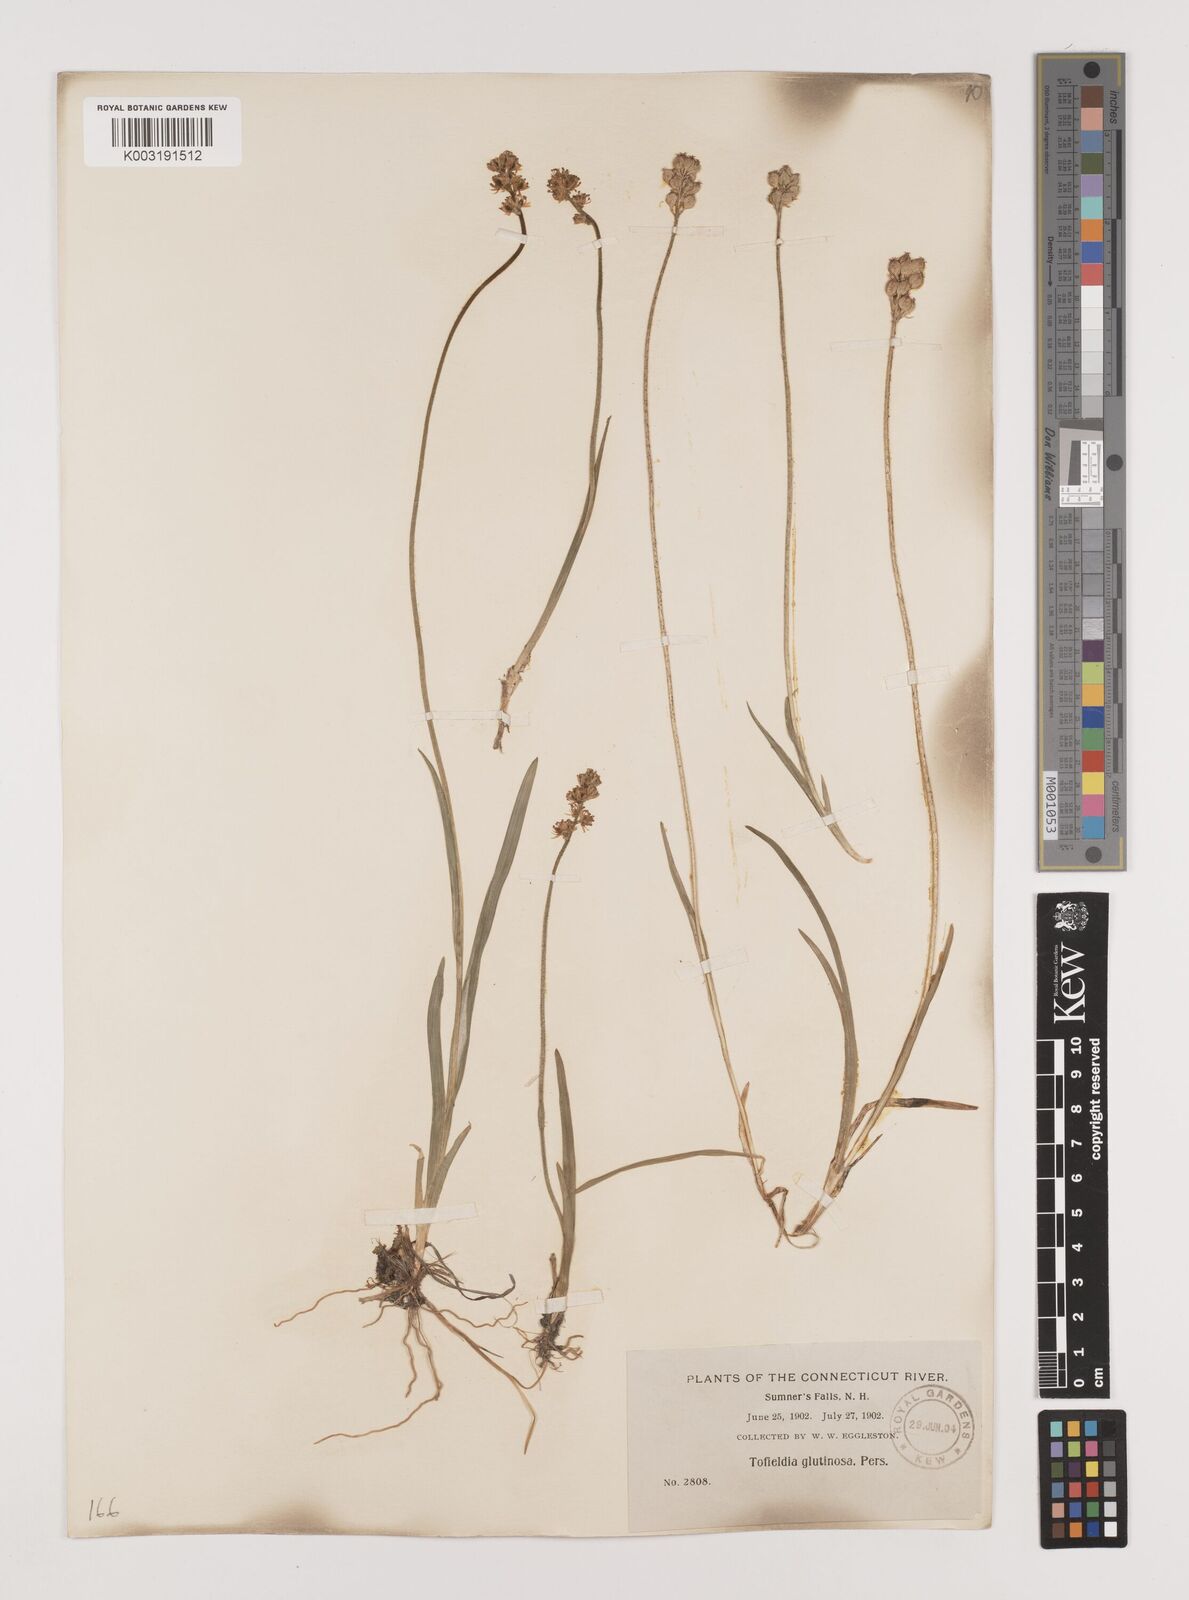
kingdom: Plantae
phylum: Tracheophyta
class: Liliopsida
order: Alismatales
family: Tofieldiaceae
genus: Triantha
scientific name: Triantha glutinosa
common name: Glutinous tofieldia
